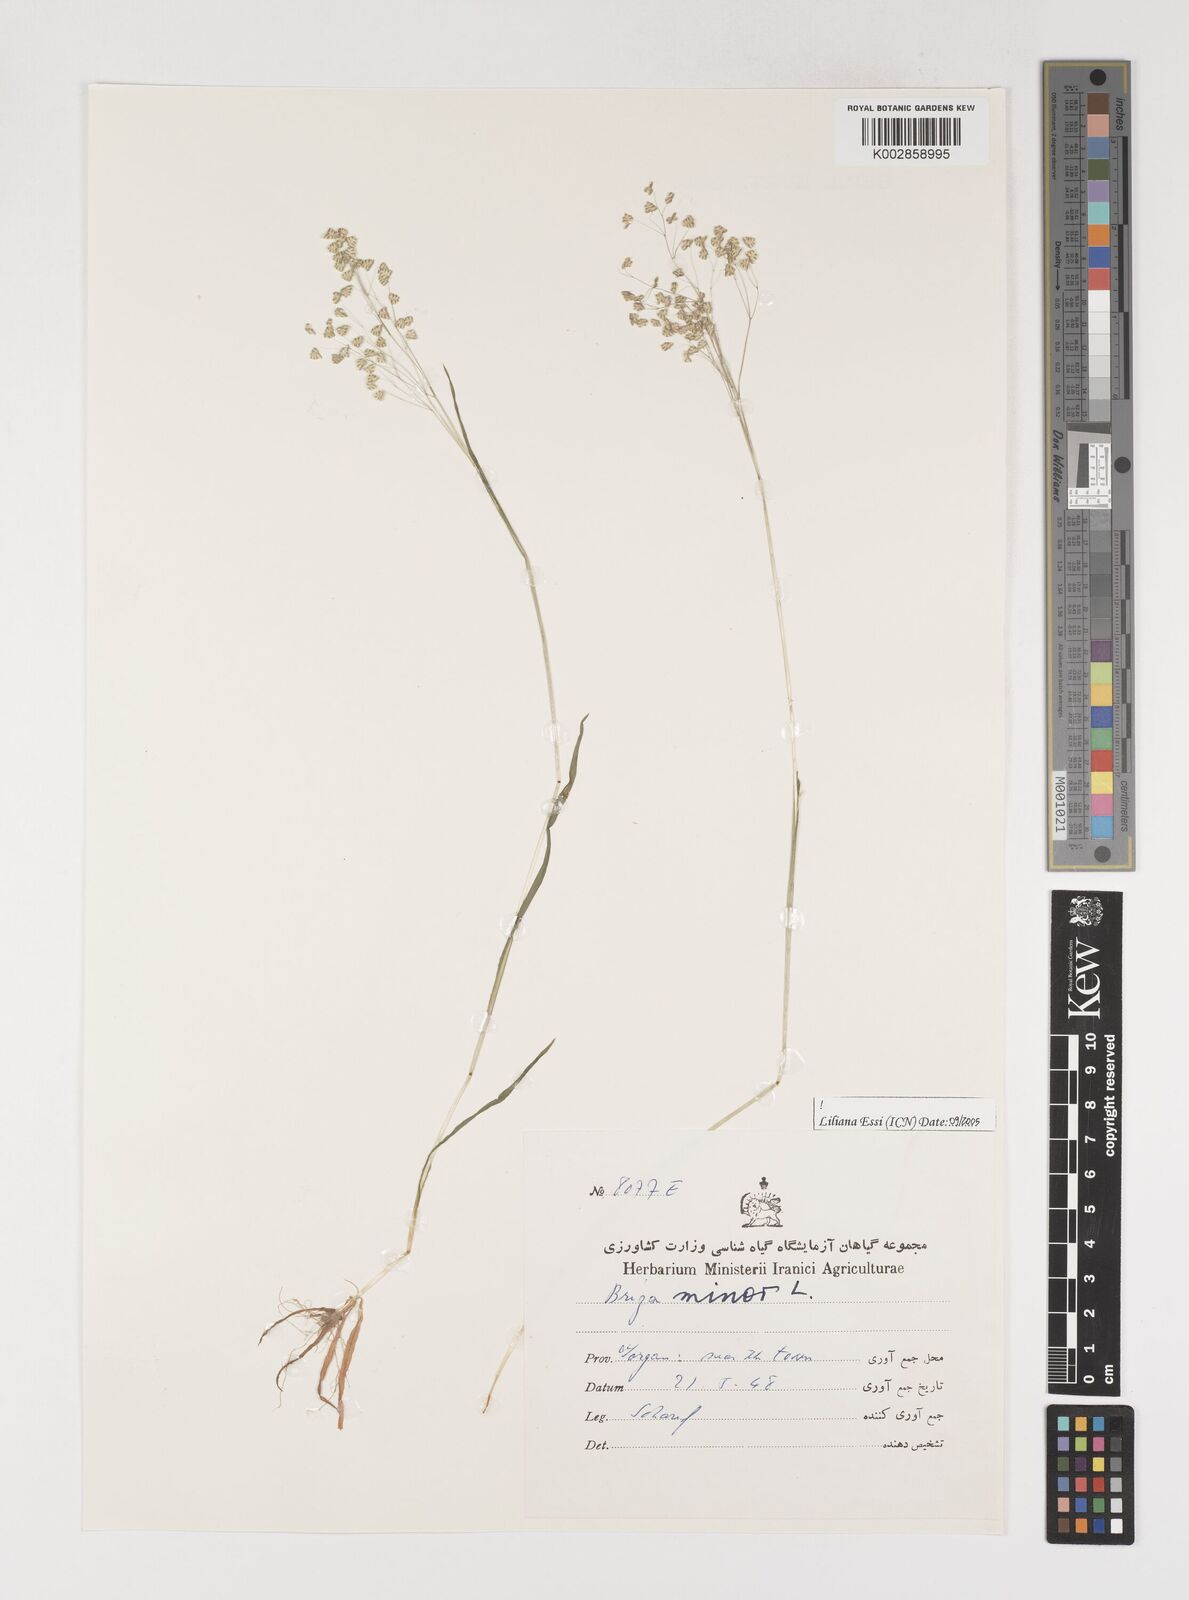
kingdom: Plantae
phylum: Tracheophyta
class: Liliopsida
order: Poales
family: Poaceae
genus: Briza
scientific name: Briza minor
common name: Lesser quaking-grass
